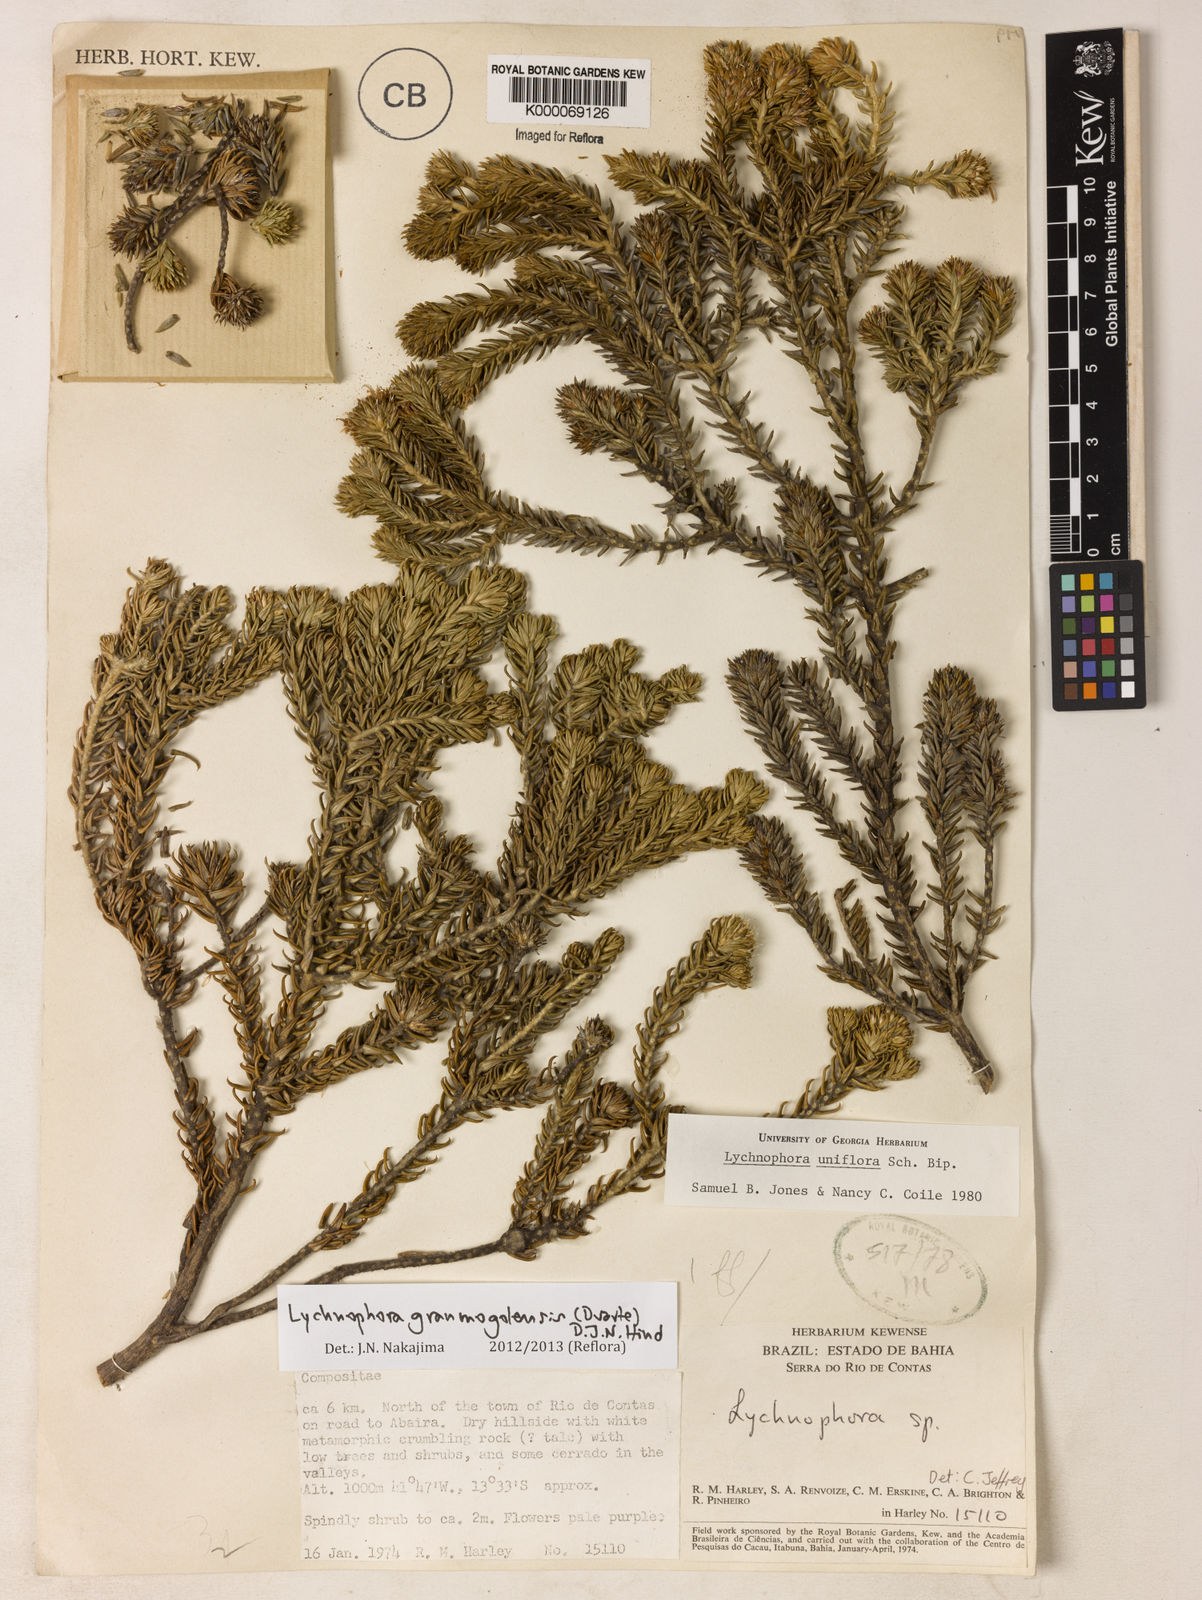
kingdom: Plantae
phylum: Tracheophyta
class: Magnoliopsida
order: Asterales
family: Asteraceae
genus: Lychnophora
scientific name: Lychnophora uniflora
